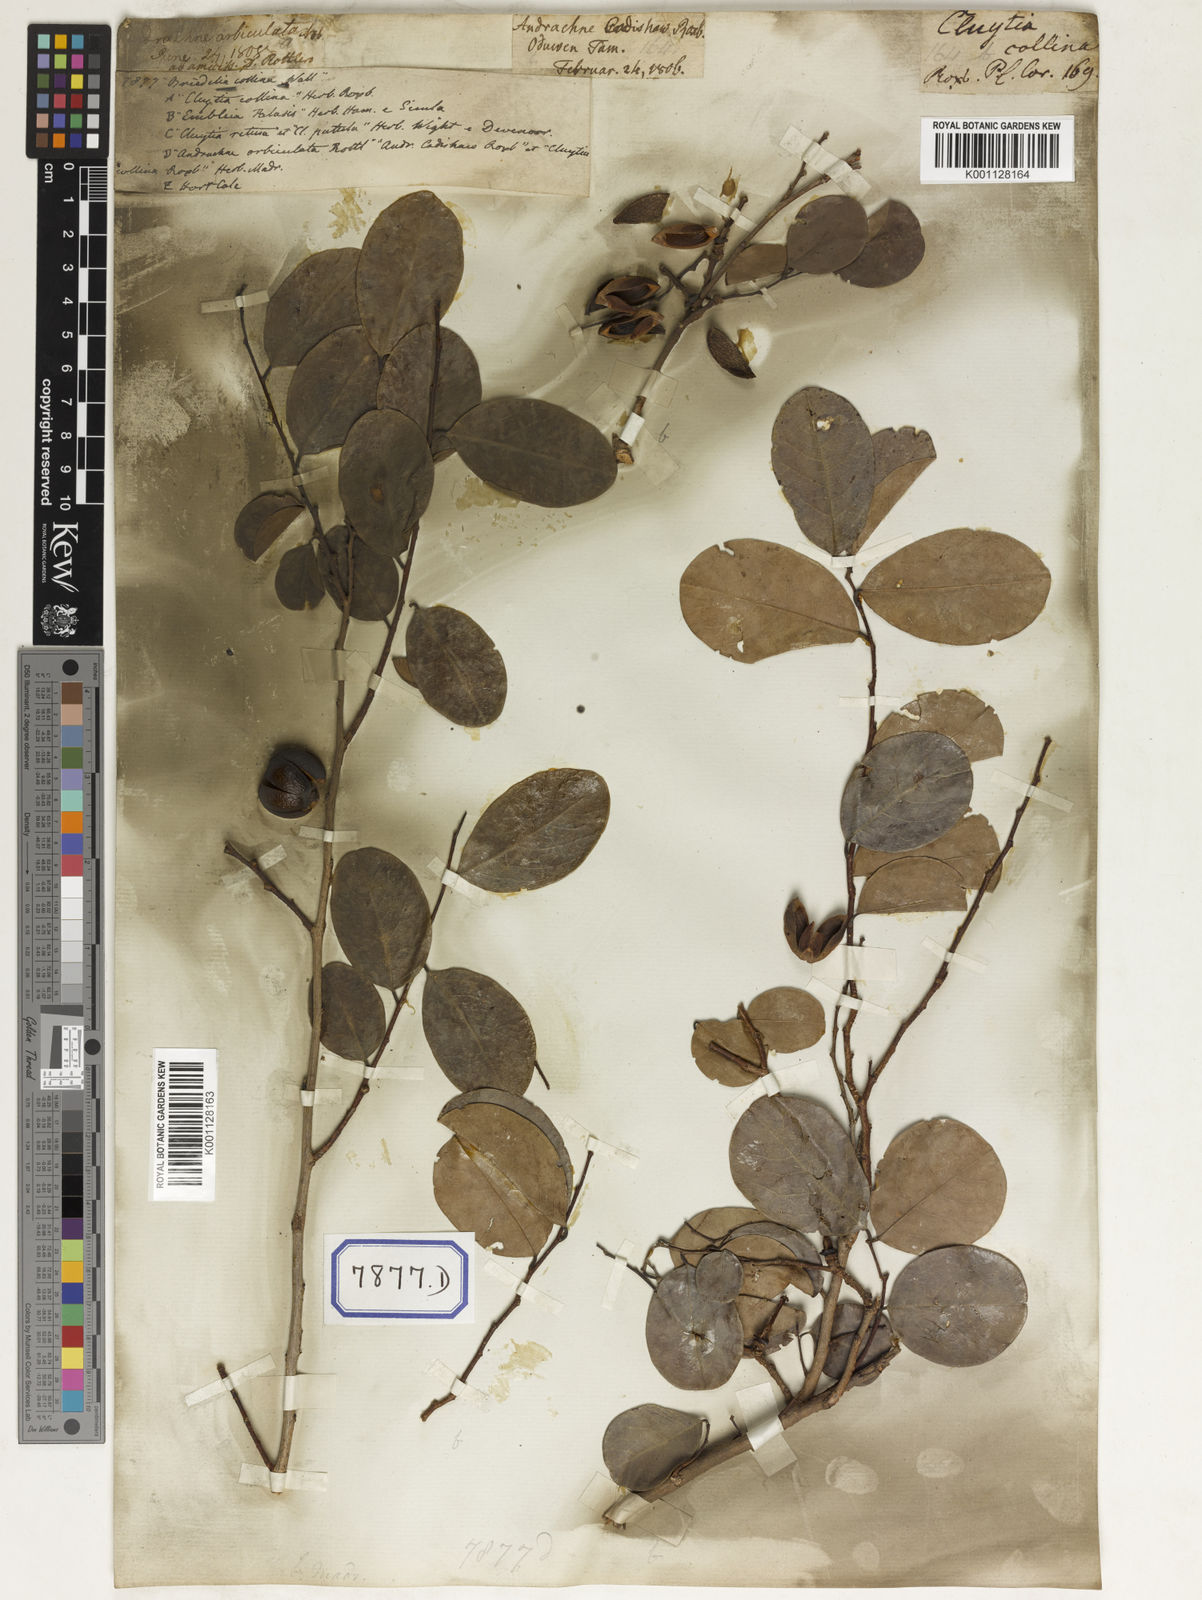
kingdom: Plantae
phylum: Tracheophyta
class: Magnoliopsida
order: Malpighiales
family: Euphorbiaceae
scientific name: Euphorbiaceae
